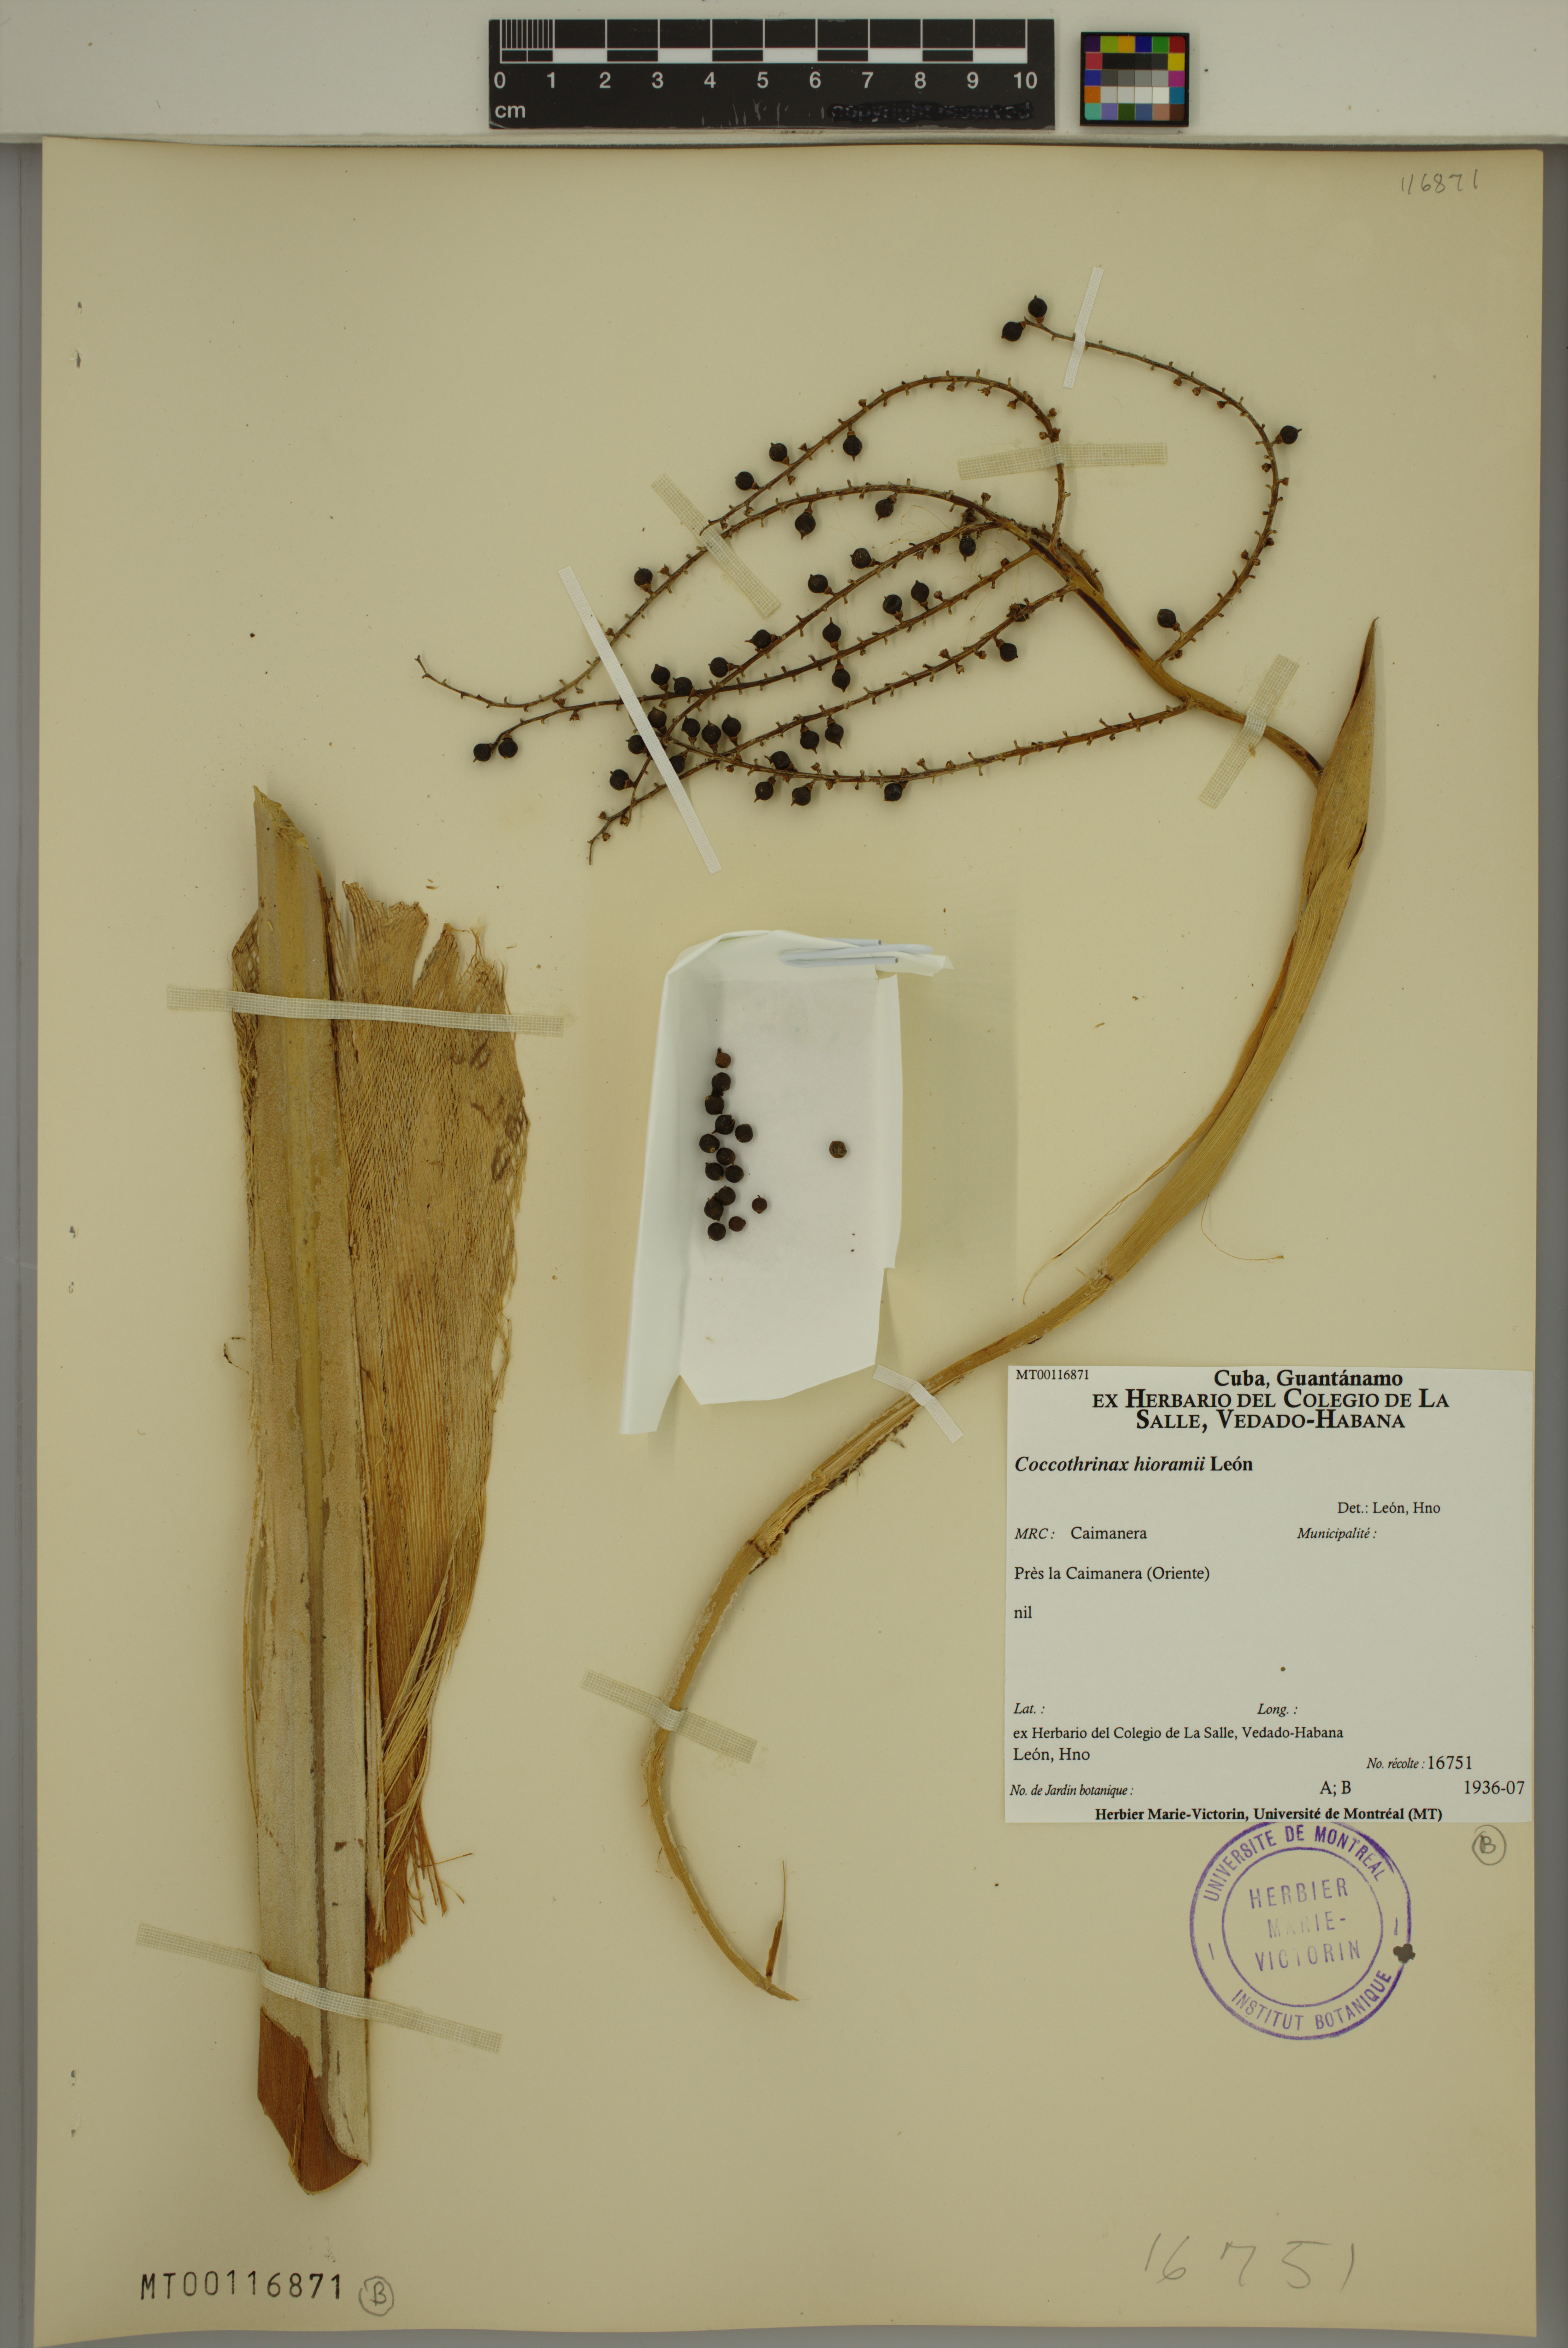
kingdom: Plantae
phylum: Tracheophyta
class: Liliopsida
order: Arecales
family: Arecaceae
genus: Coccothrinax
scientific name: Coccothrinax hioramii
